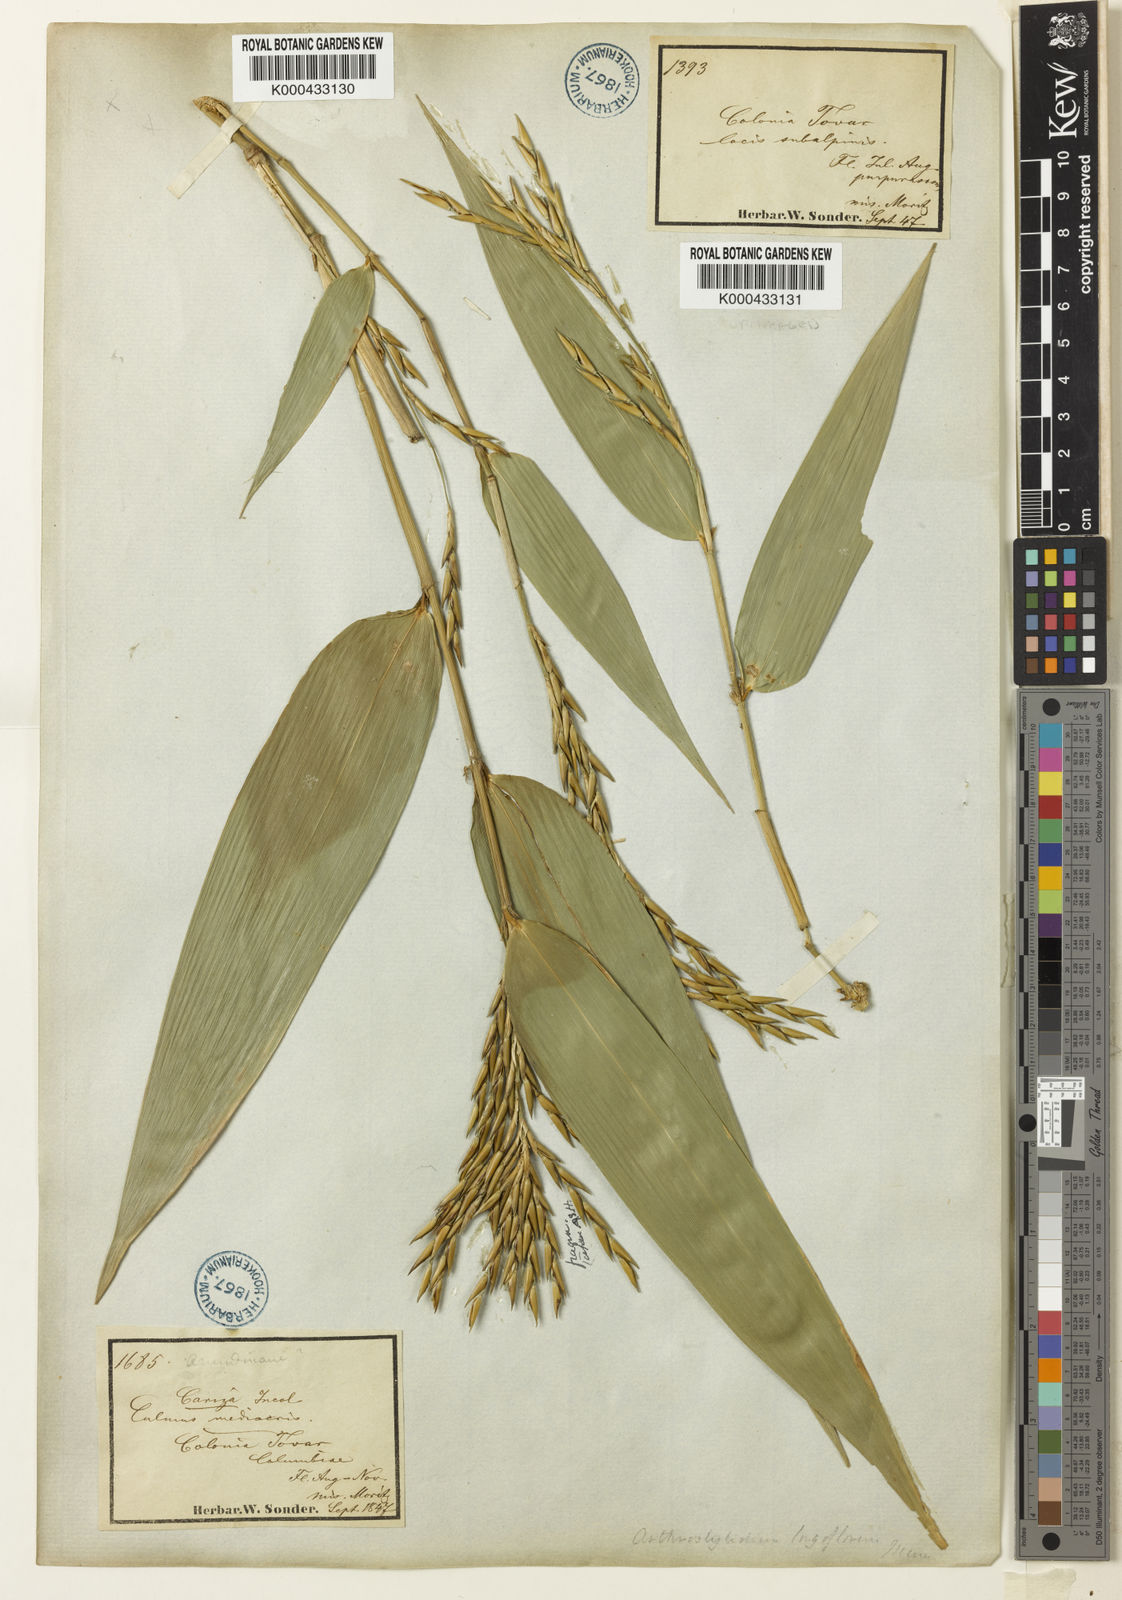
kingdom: Plantae
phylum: Tracheophyta
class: Liliopsida
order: Poales
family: Poaceae
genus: Arthrostylidium
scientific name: Arthrostylidium longiflorum
